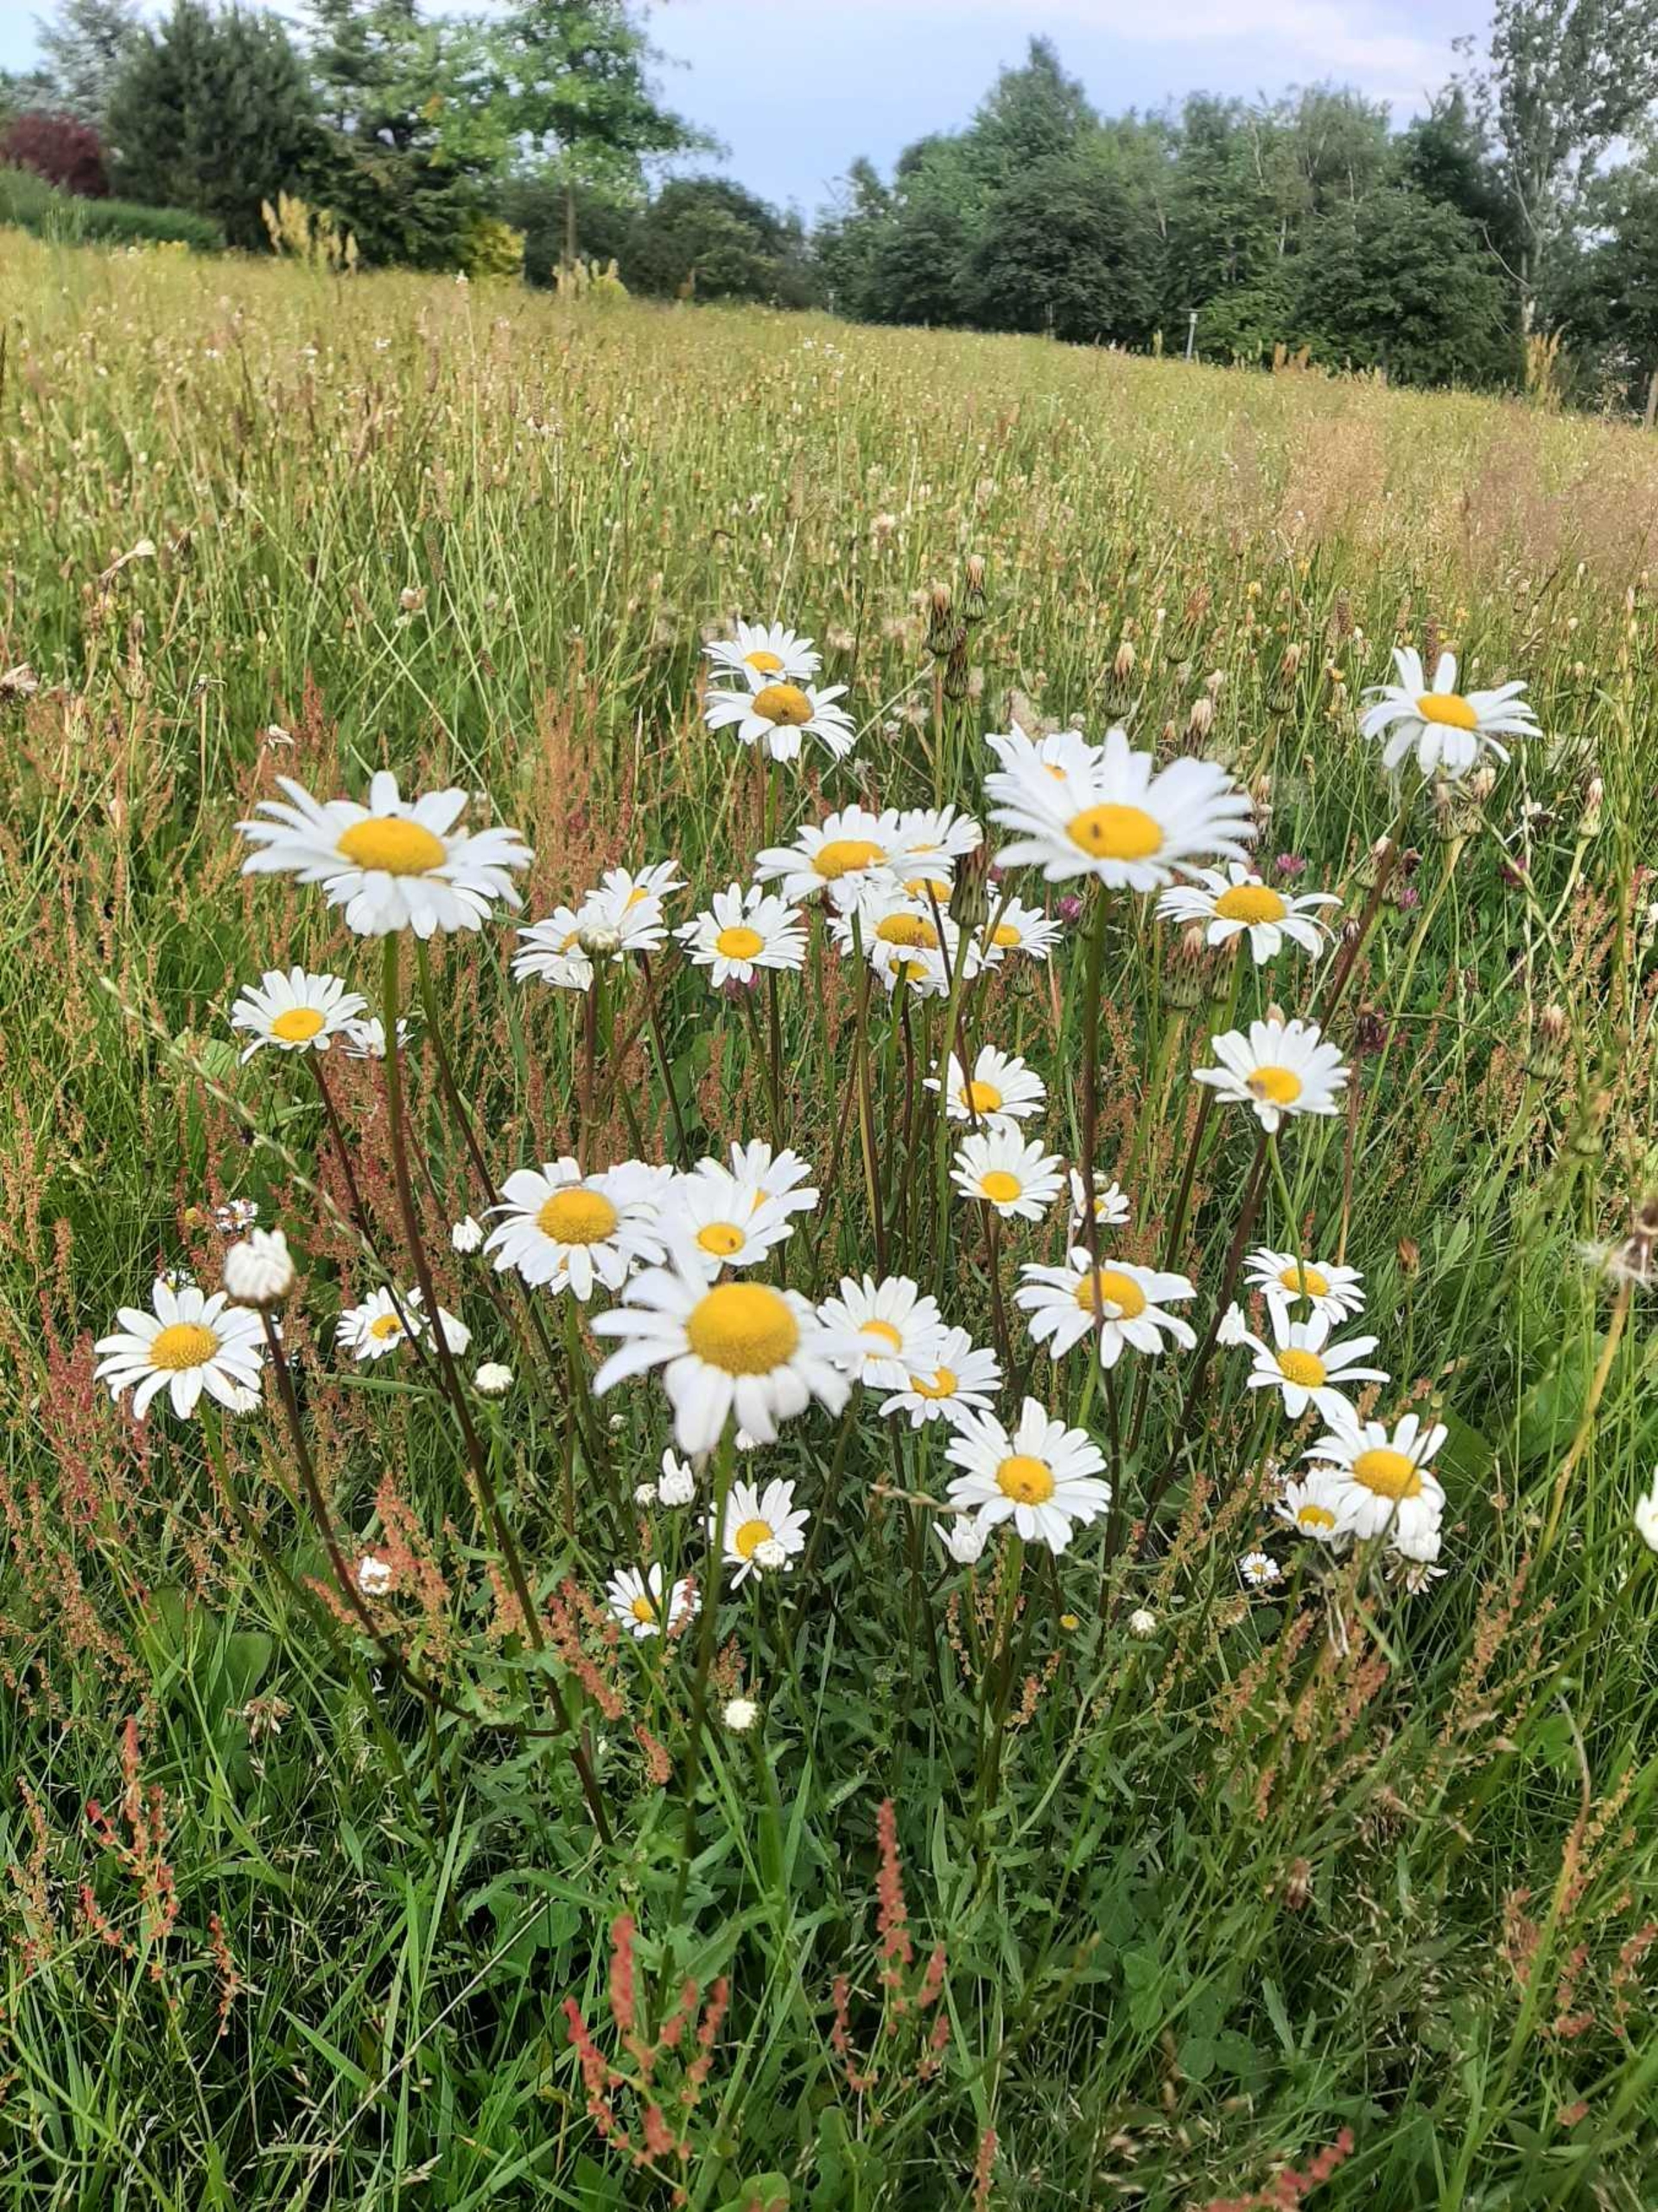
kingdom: Plantae
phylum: Tracheophyta
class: Magnoliopsida
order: Asterales
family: Asteraceae
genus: Leucanthemum
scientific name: Leucanthemum vulgare
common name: Hvid okseøje
